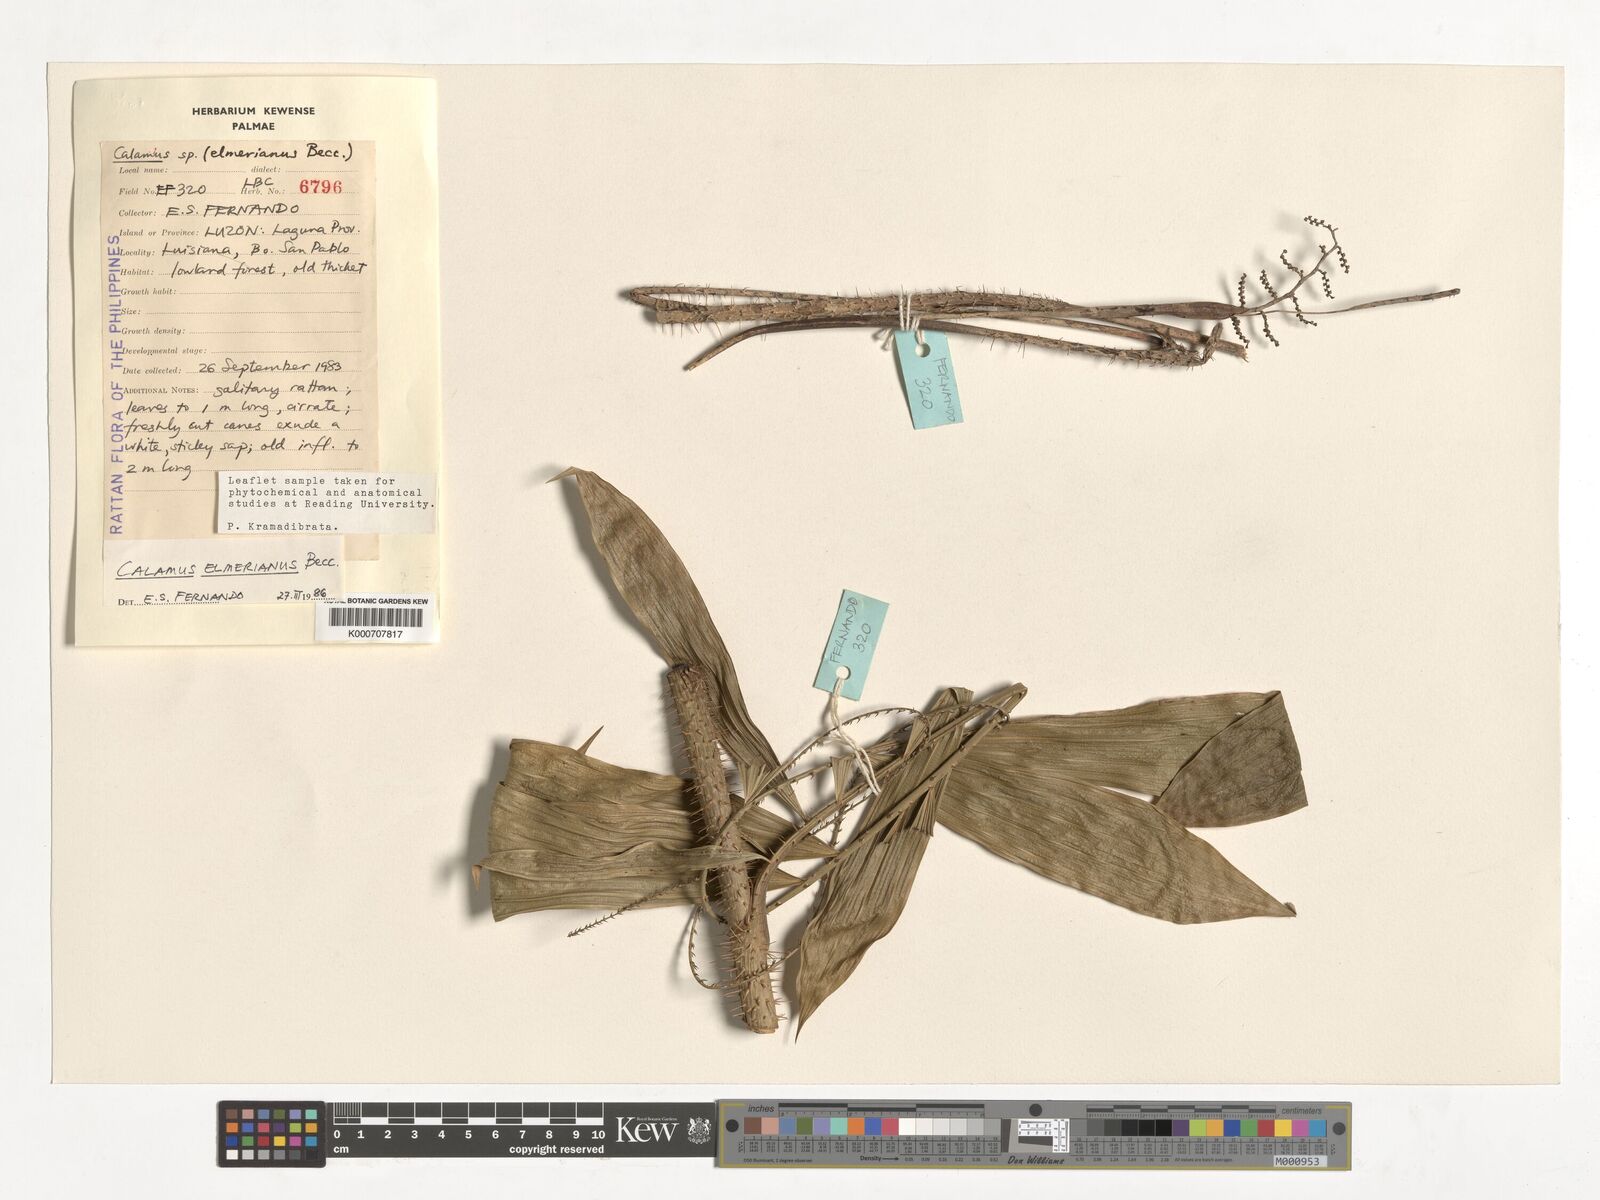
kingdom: Plantae
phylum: Tracheophyta
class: Liliopsida
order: Arecales
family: Arecaceae
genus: Calamus
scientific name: Calamus mitis
